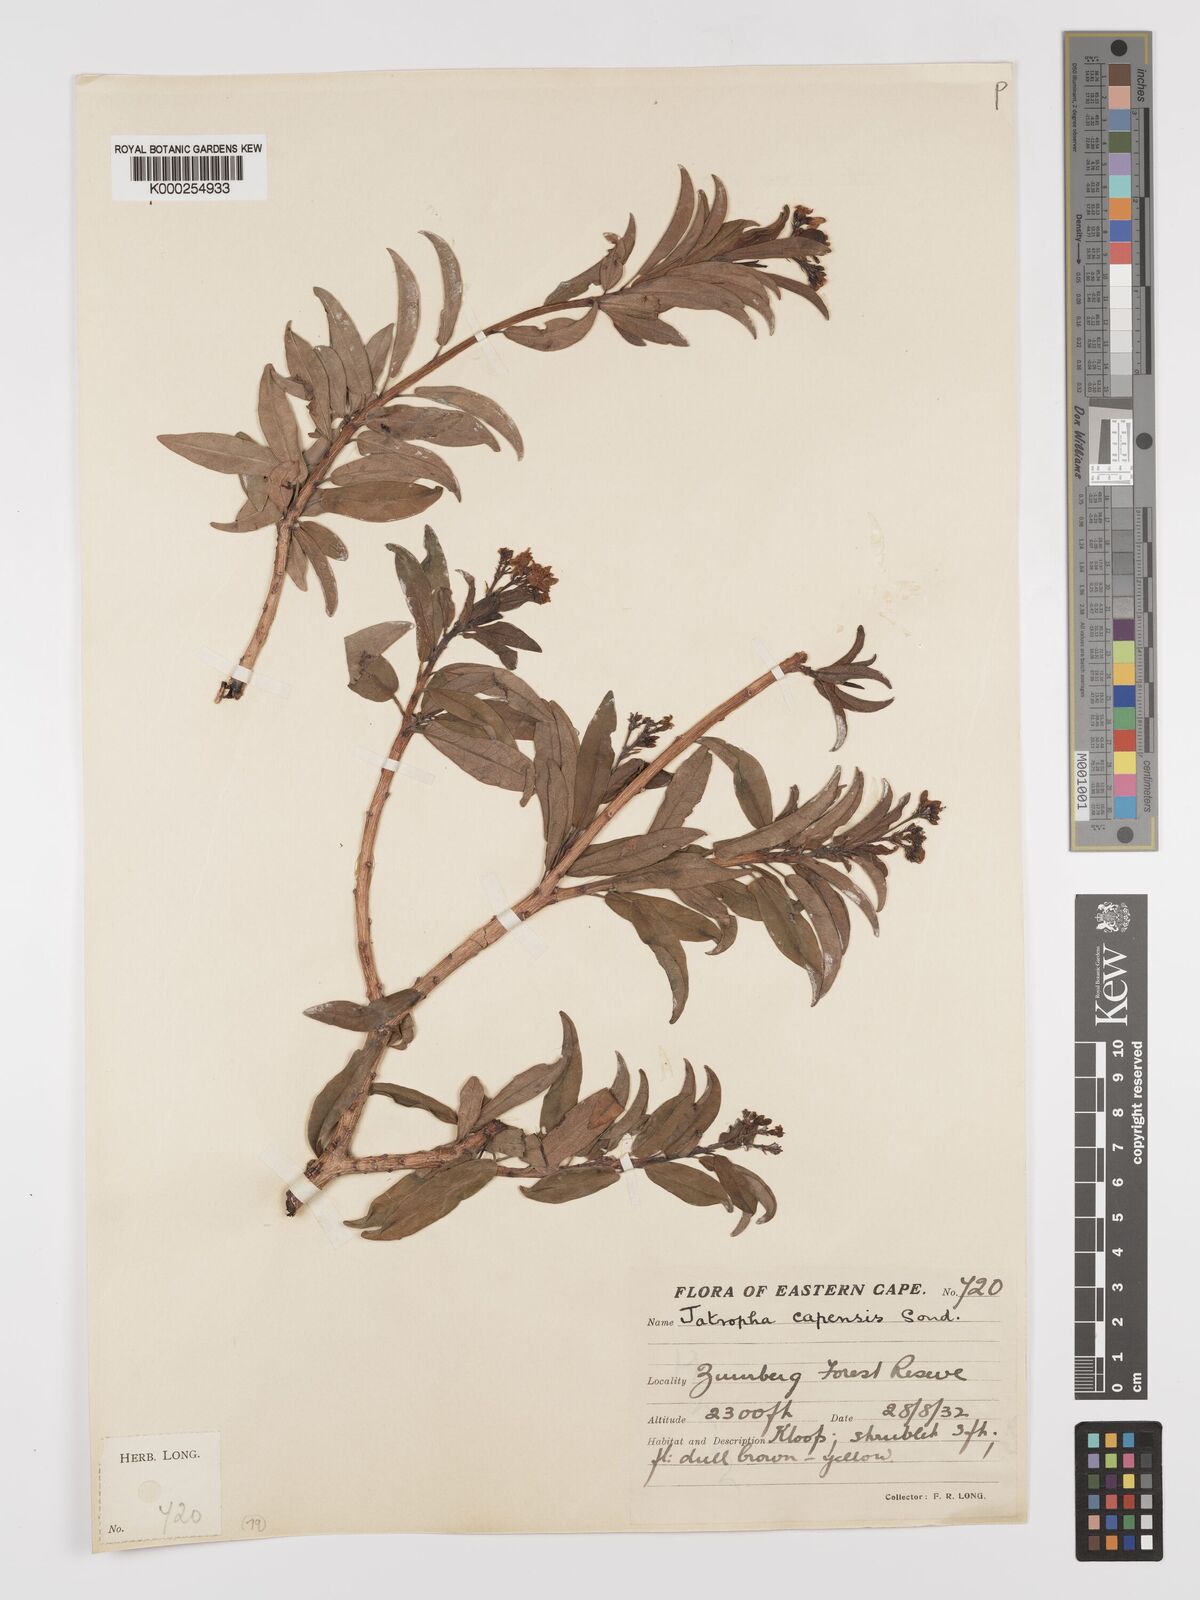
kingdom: Plantae
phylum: Tracheophyta
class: Magnoliopsida
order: Malpighiales
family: Euphorbiaceae
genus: Jatropha
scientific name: Jatropha capensis
